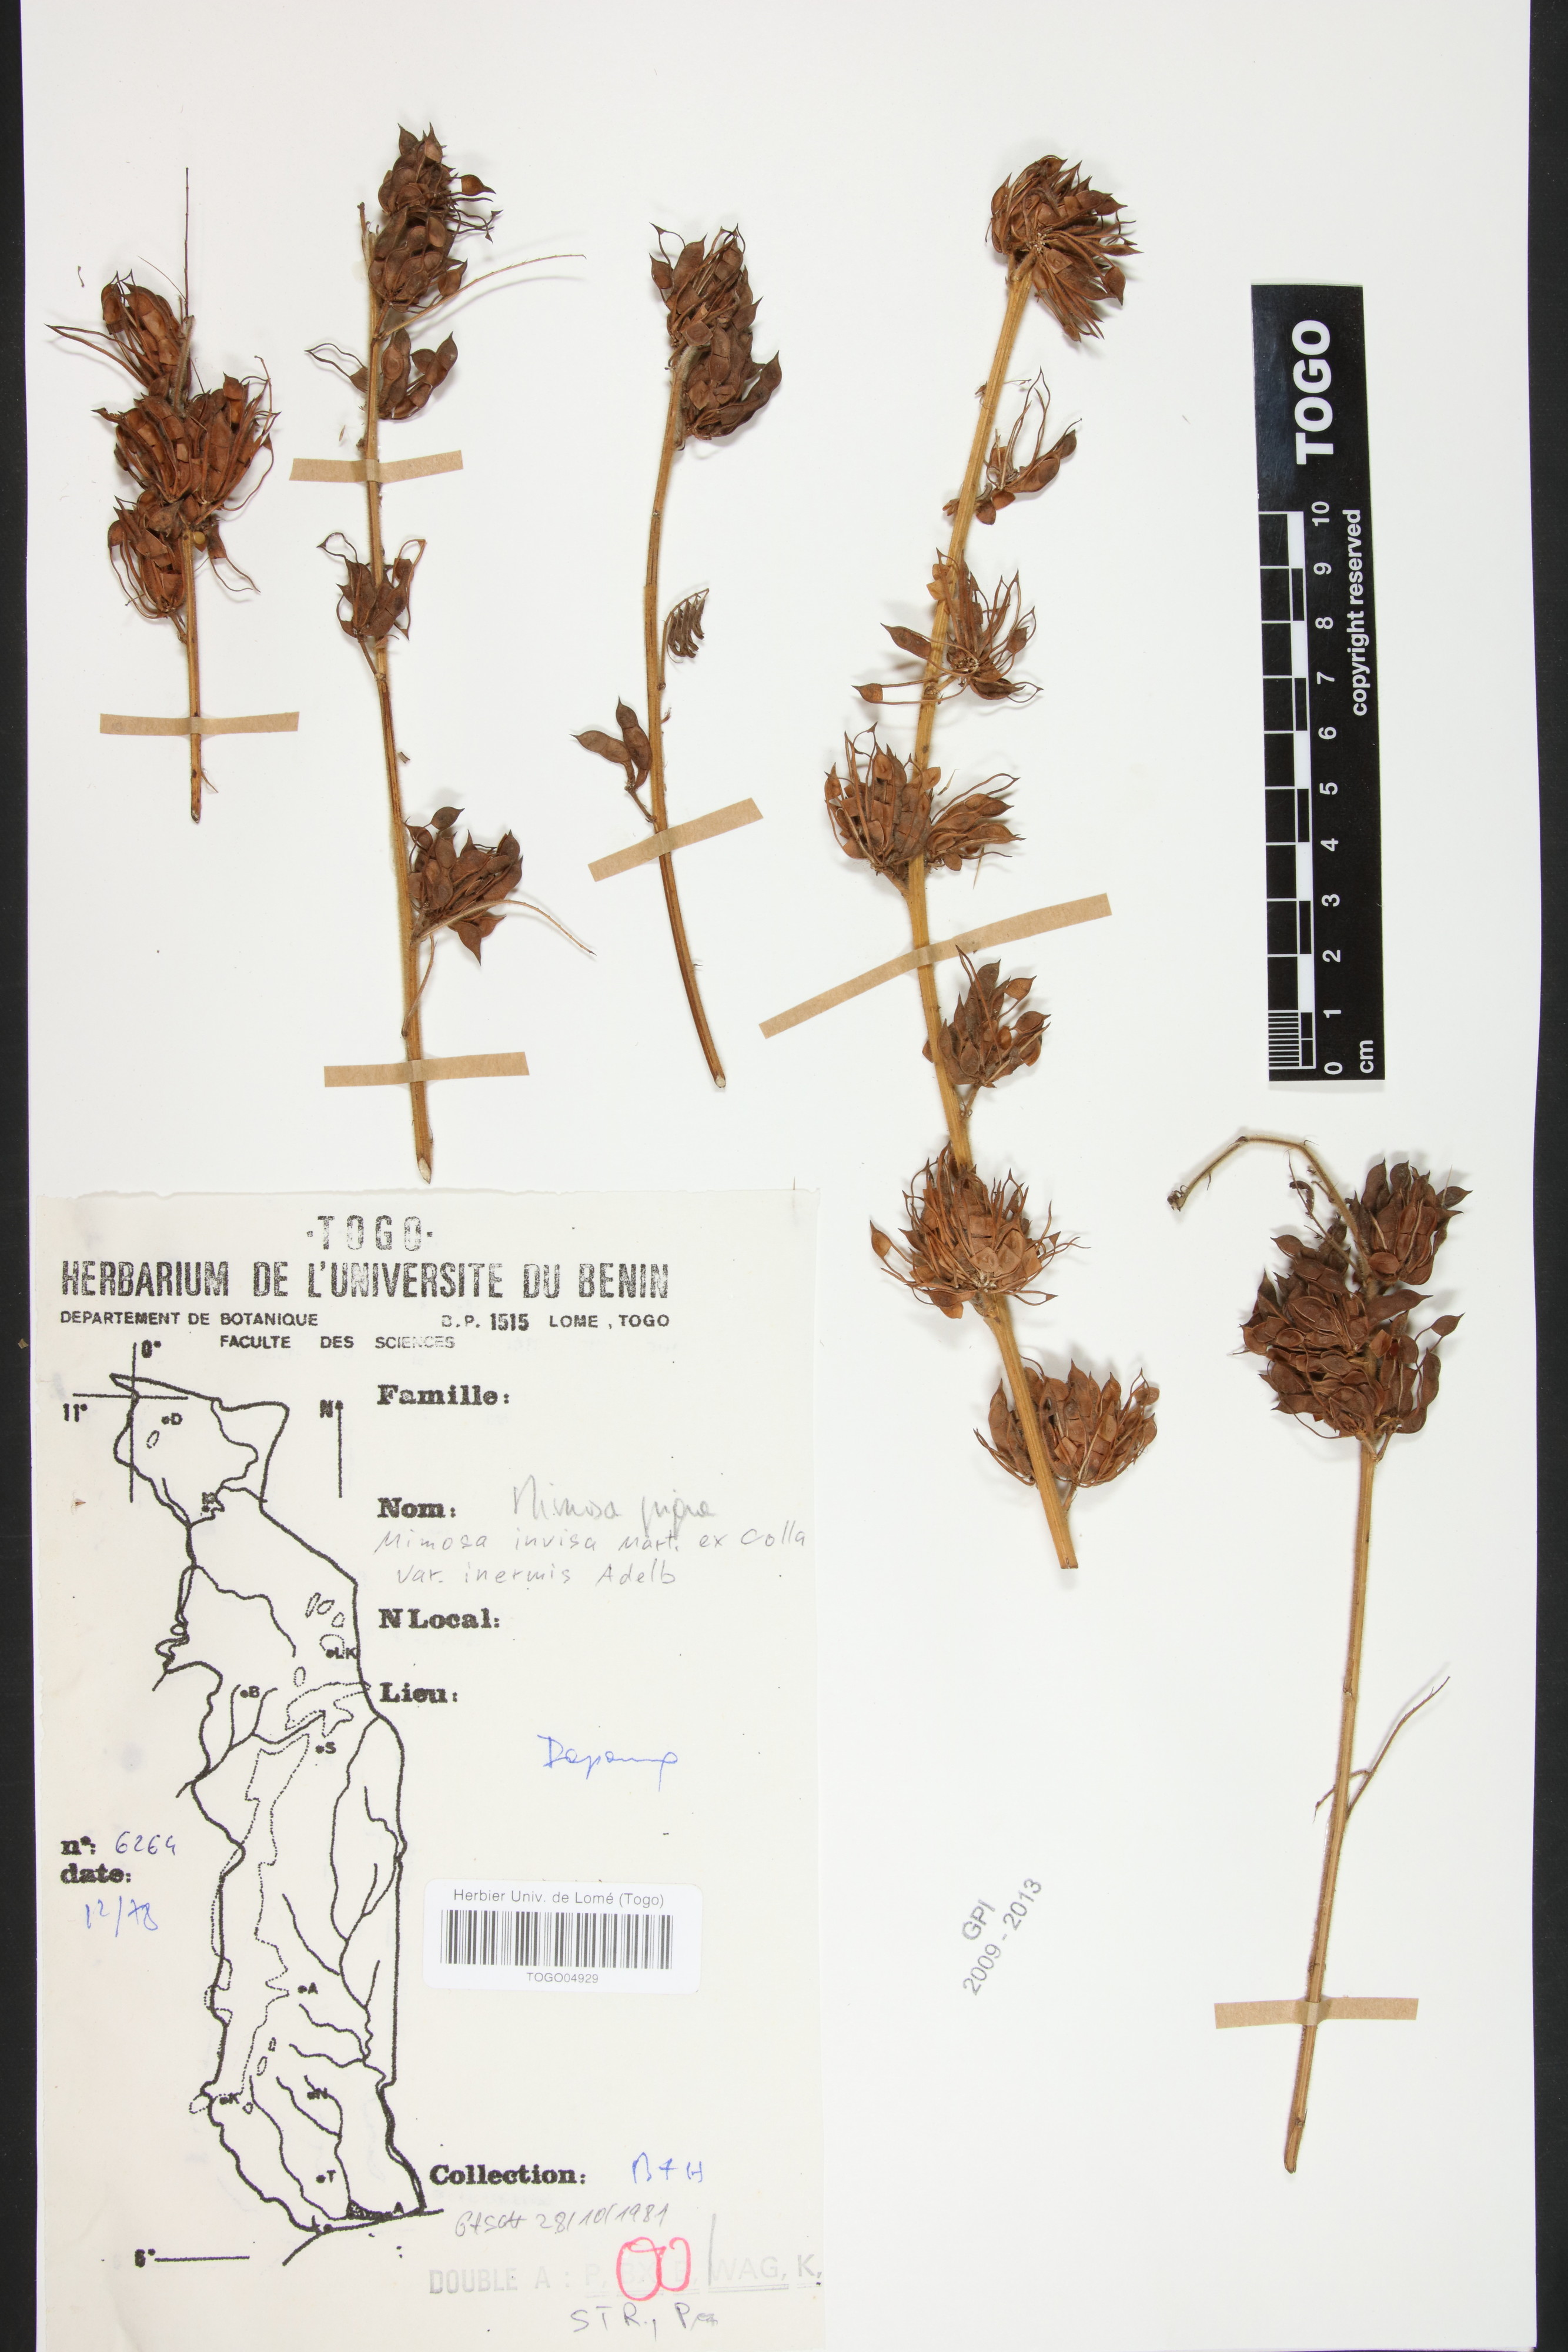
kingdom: Plantae
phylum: Tracheophyta
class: Magnoliopsida
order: Fabales
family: Fabaceae
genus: Mimosa
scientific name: Mimosa diplotricha
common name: Giant sensitive-plant
